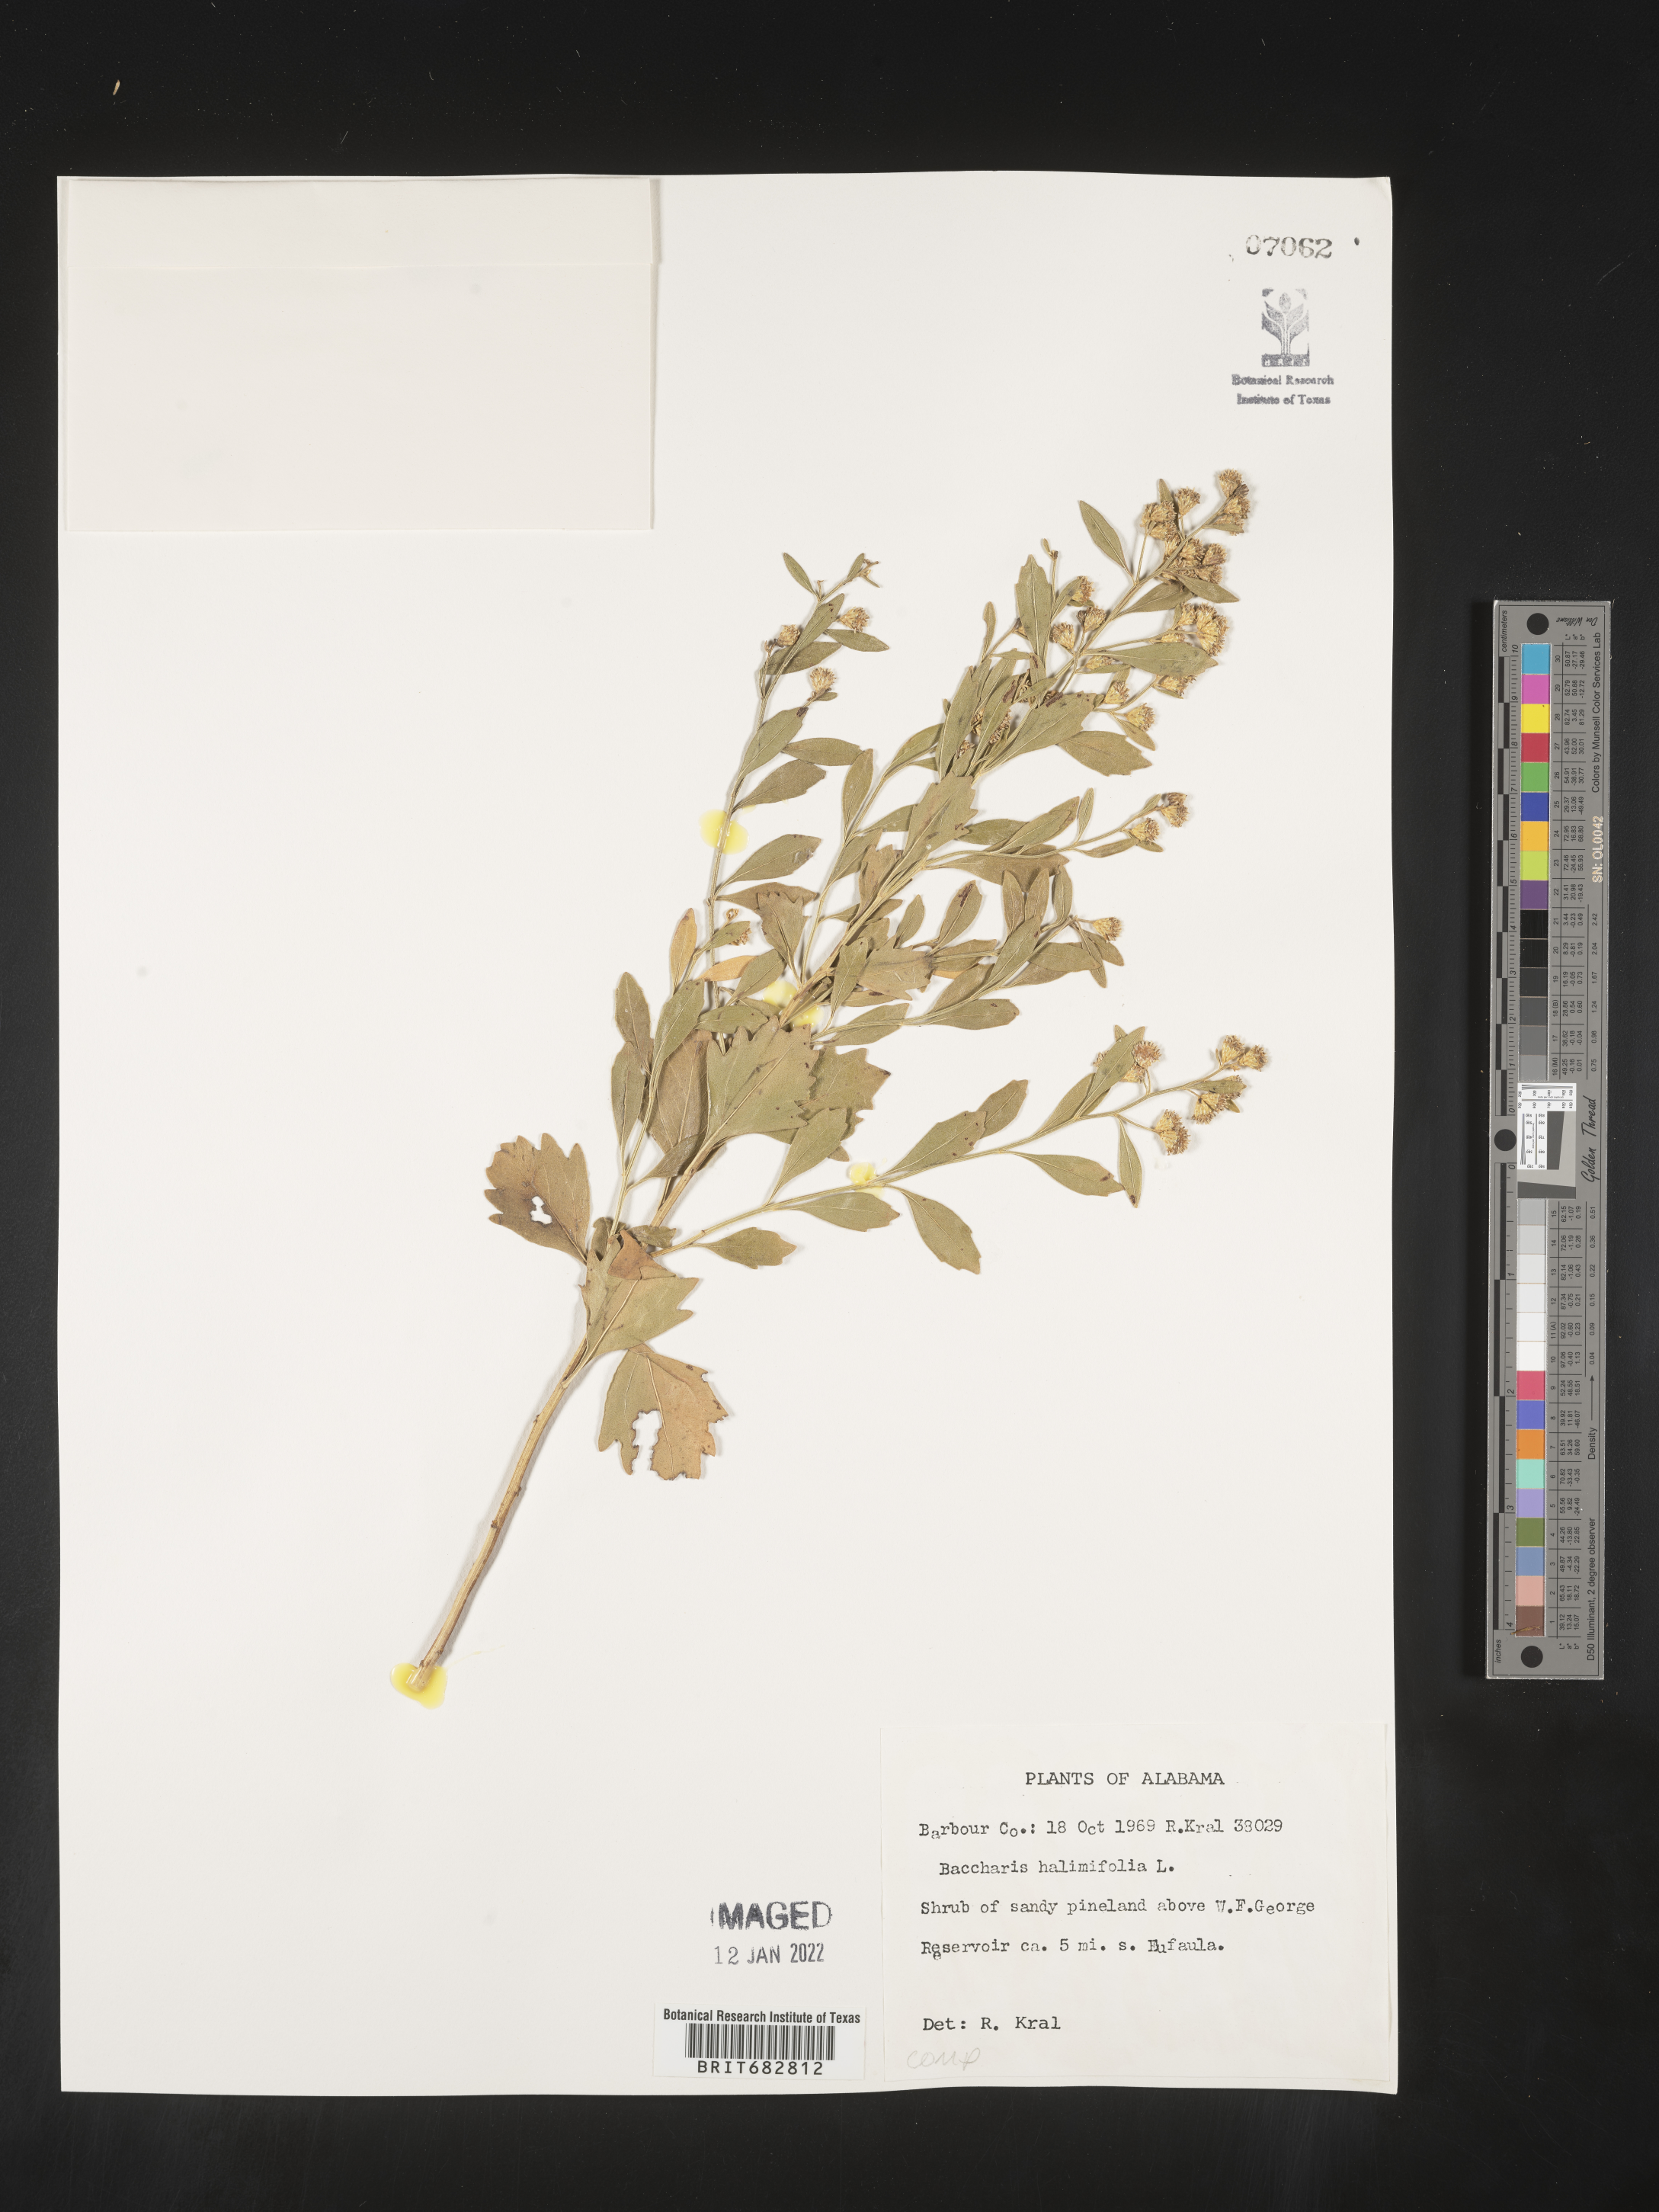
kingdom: Plantae
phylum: Tracheophyta
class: Magnoliopsida
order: Asterales
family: Asteraceae
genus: Nidorella
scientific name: Nidorella ivifolia
